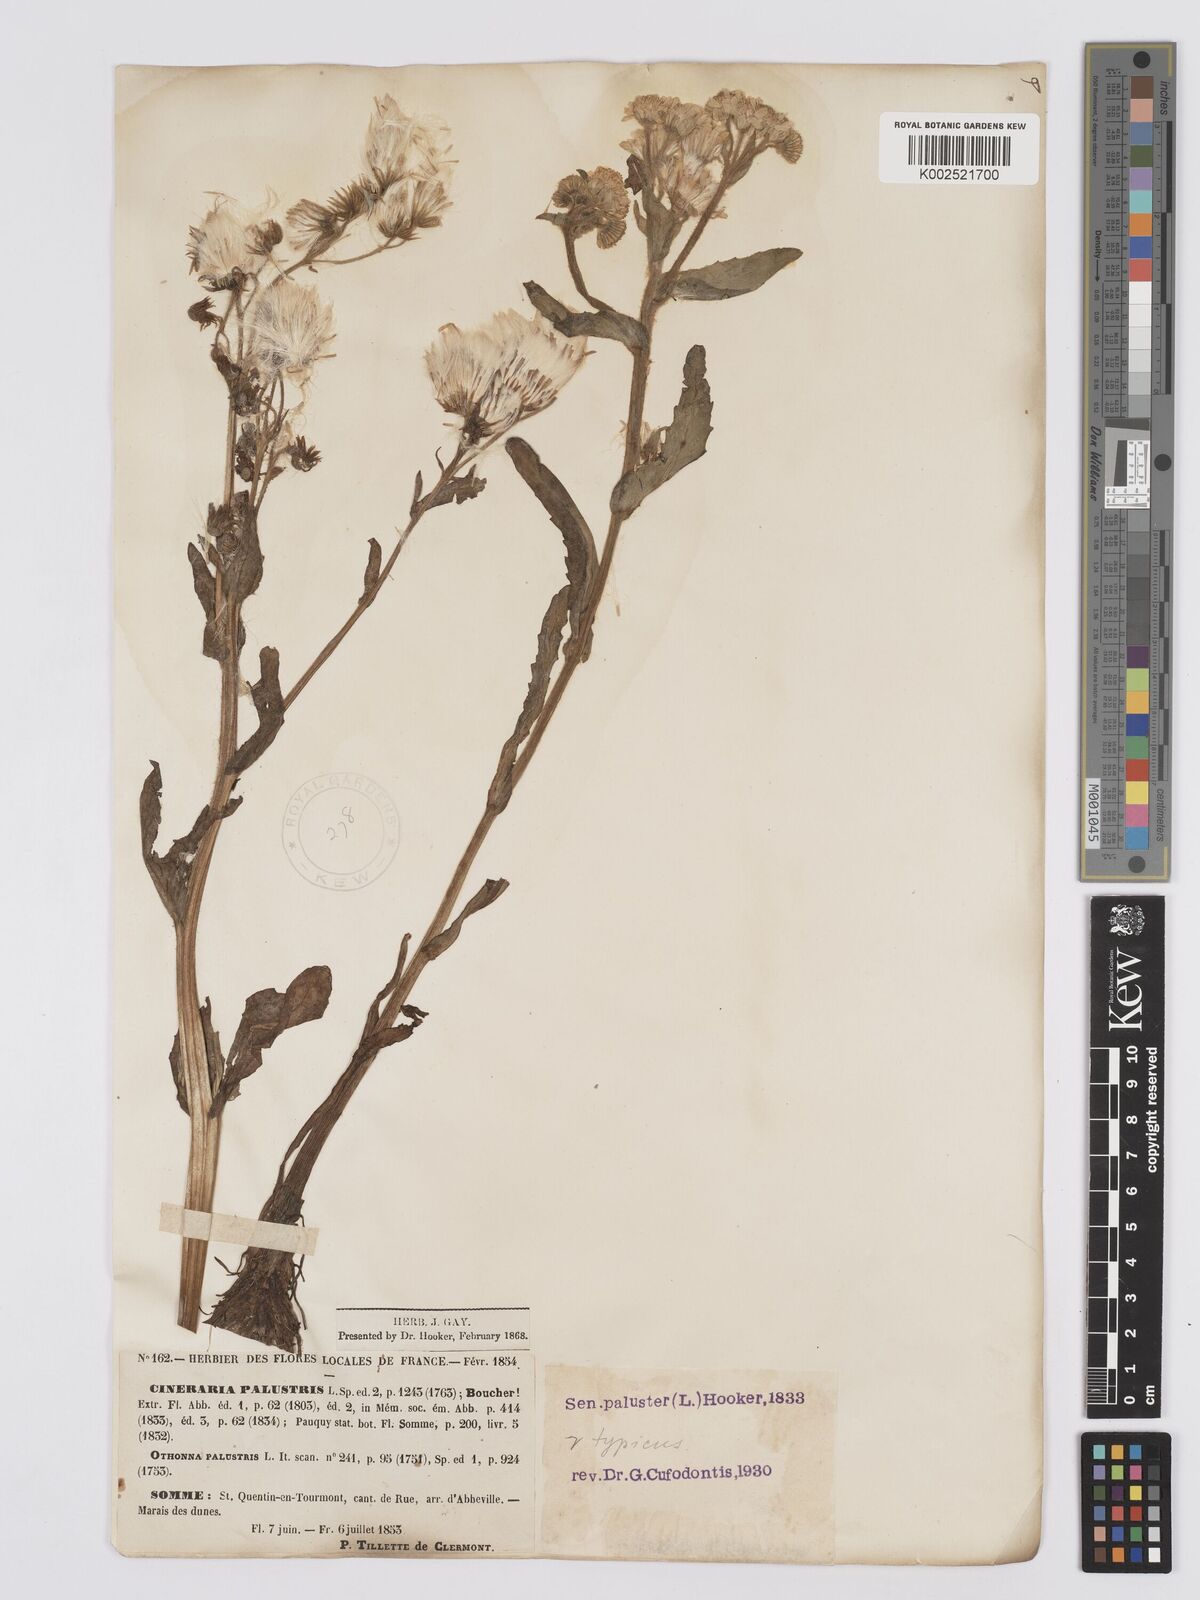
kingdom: Plantae
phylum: Tracheophyta
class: Magnoliopsida
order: Asterales
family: Asteraceae
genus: Tephroseris
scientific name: Tephroseris palustris
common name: Marsh fleawort
